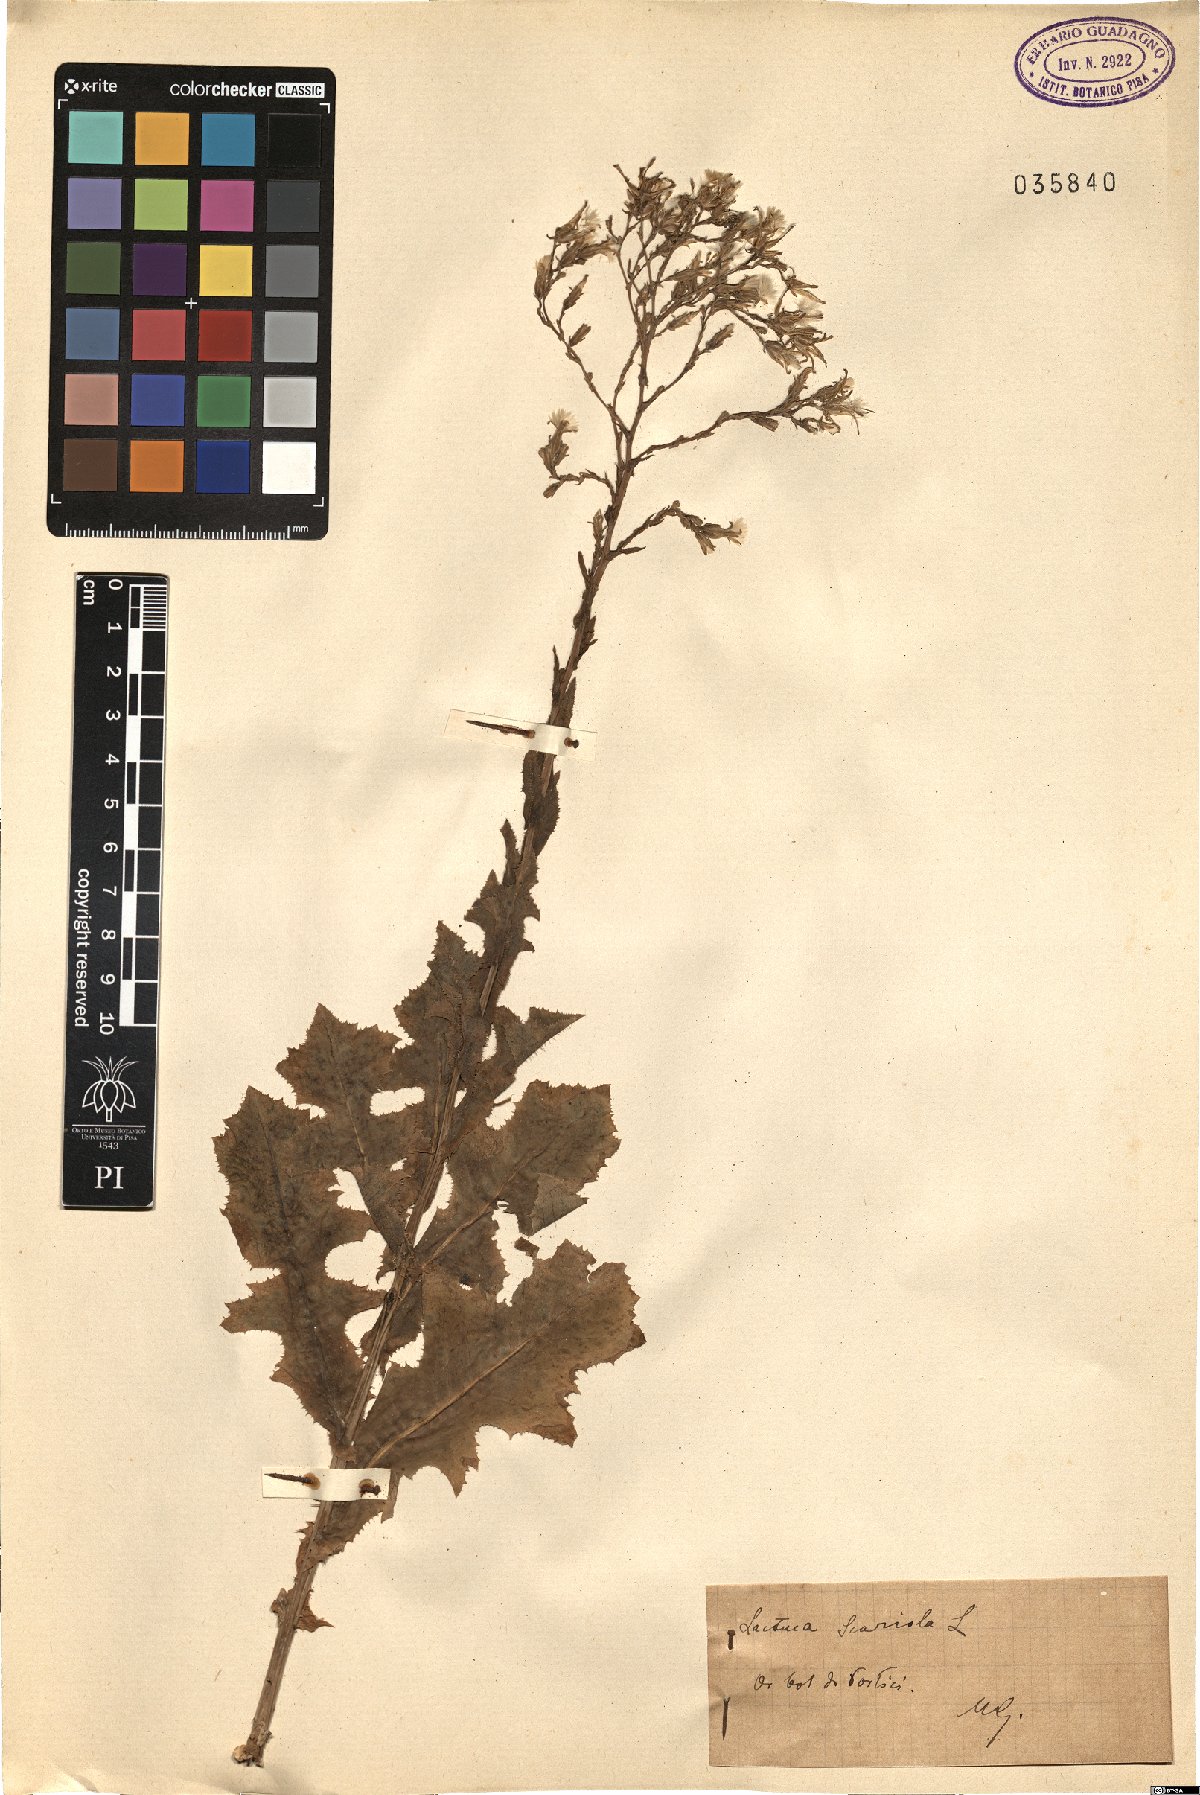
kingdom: Plantae
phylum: Tracheophyta
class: Magnoliopsida
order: Asterales
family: Asteraceae
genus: Lactuca
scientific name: Lactuca serriola
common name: Prickly lettuce
